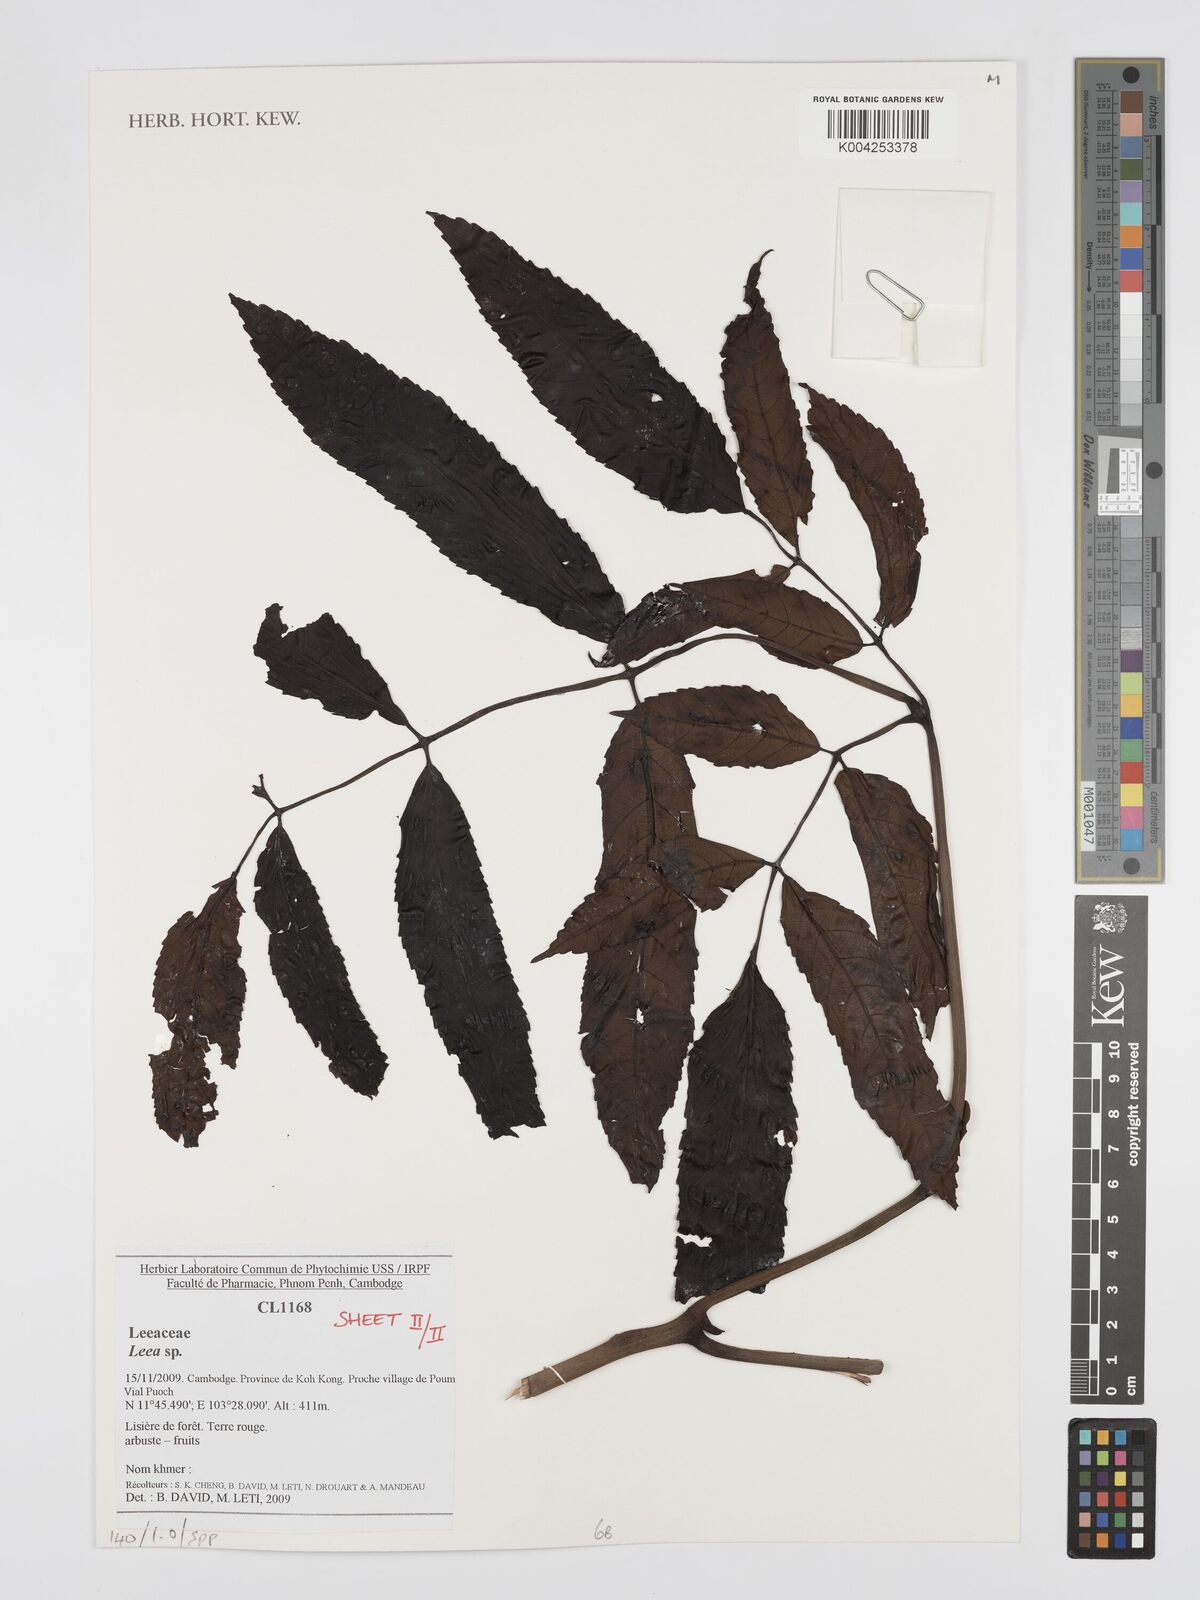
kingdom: Plantae
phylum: Tracheophyta
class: Magnoliopsida
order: Vitales
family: Vitaceae
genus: Leea
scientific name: Leea
